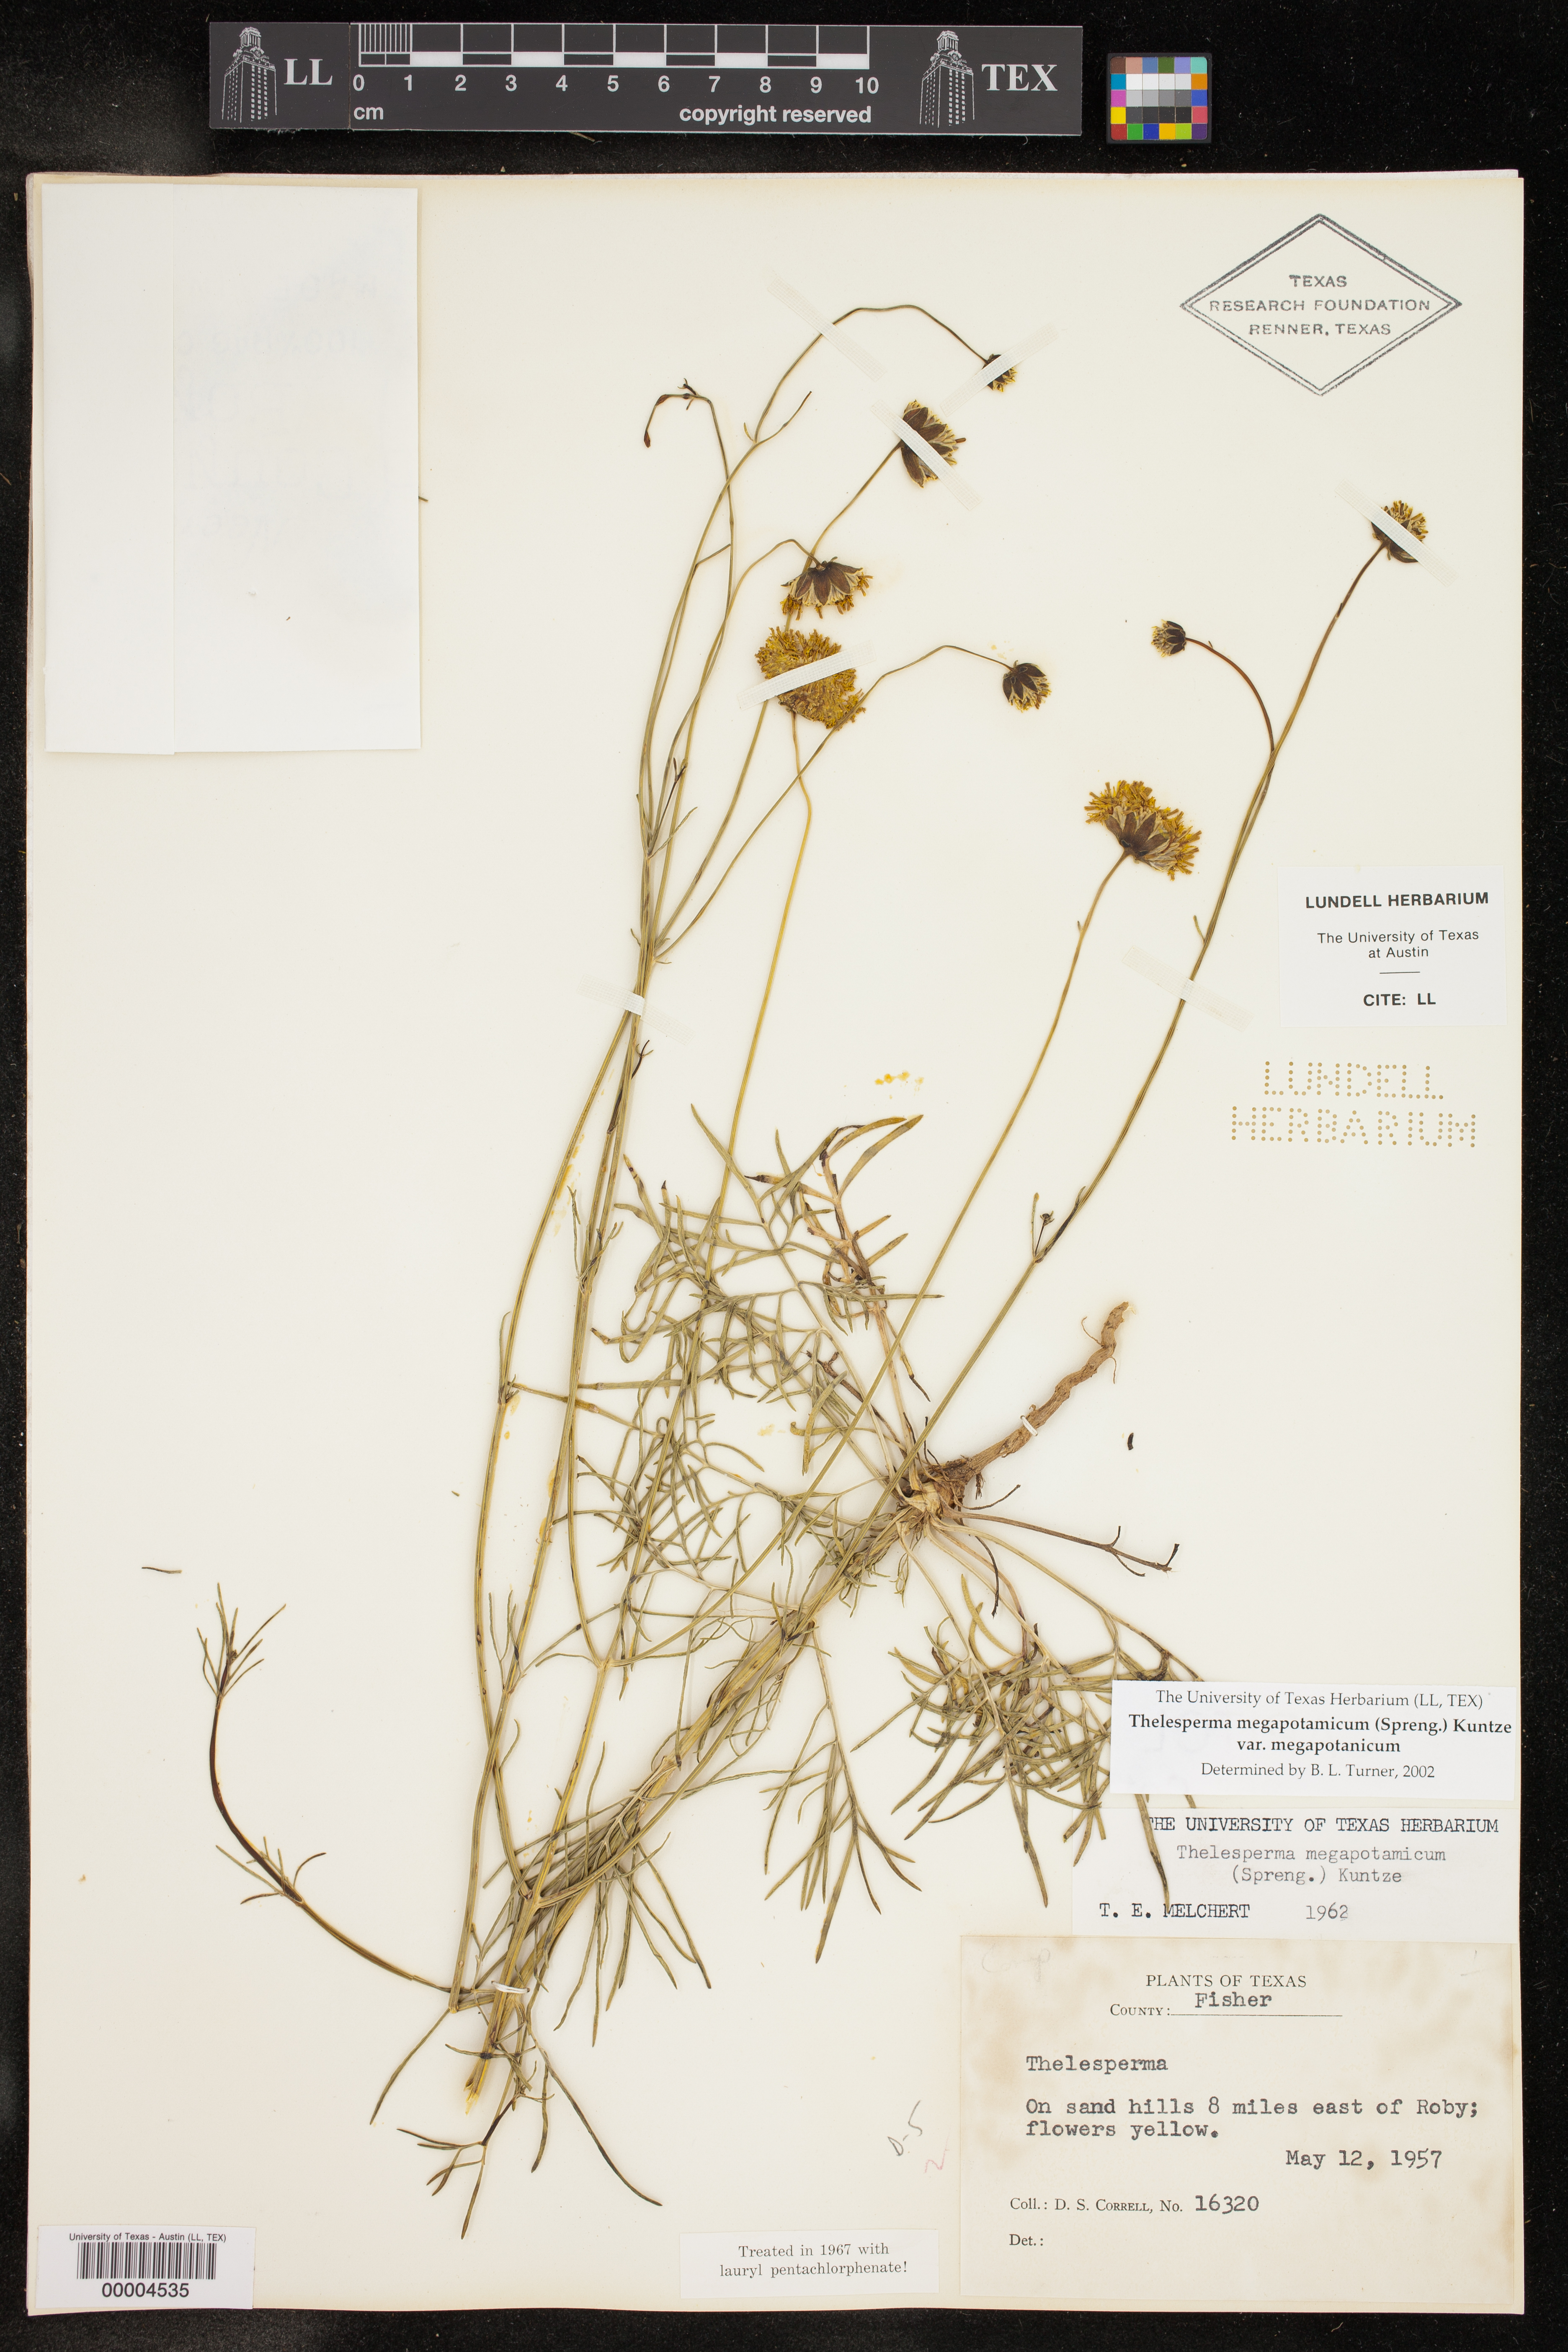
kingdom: Plantae
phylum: Tracheophyta
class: Magnoliopsida
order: Asterales
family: Asteraceae
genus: Thelesperma
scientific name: Thelesperma megapotamicum
